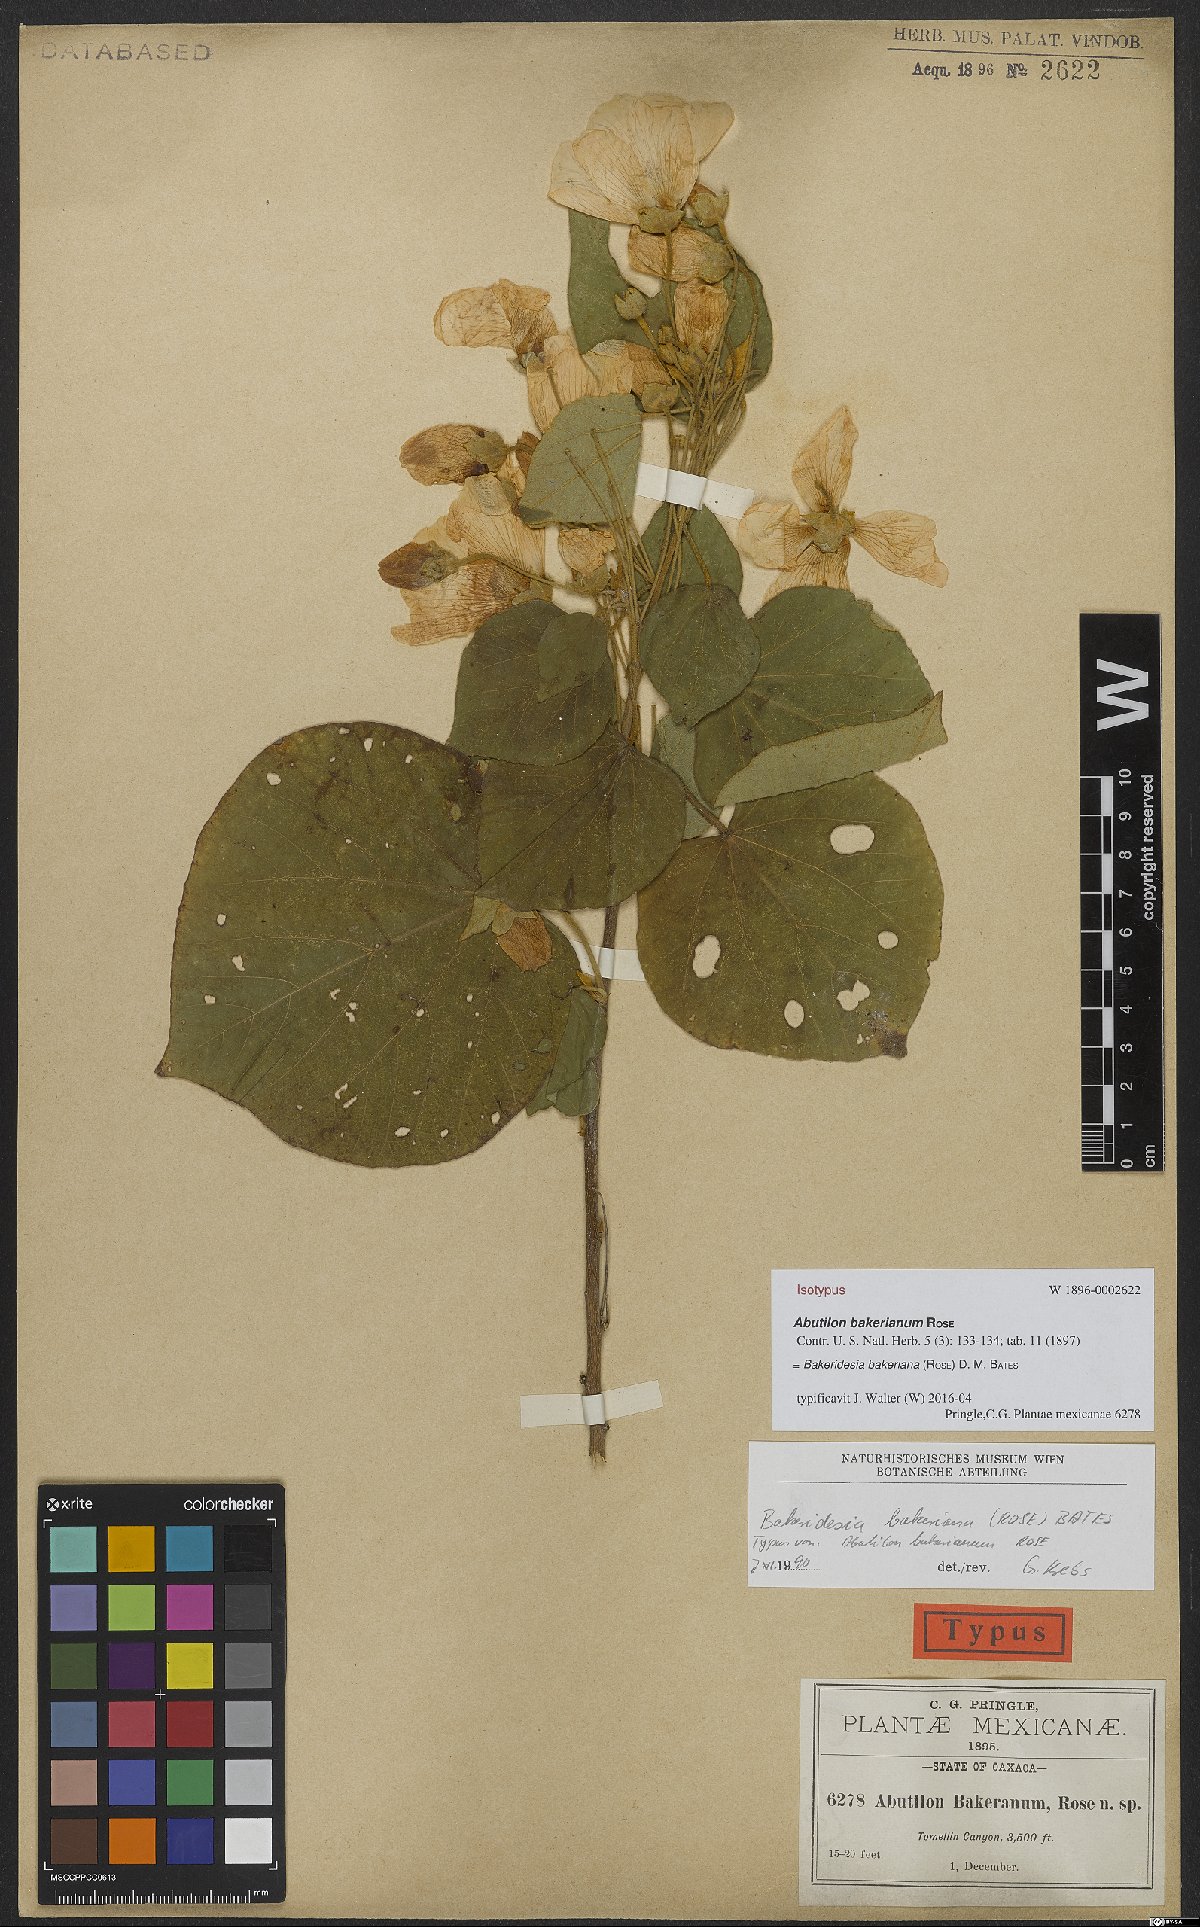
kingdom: Plantae
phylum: Tracheophyta
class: Magnoliopsida
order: Malvales
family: Malvaceae
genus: Bakeridesia
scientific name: Bakeridesia bakeriana
